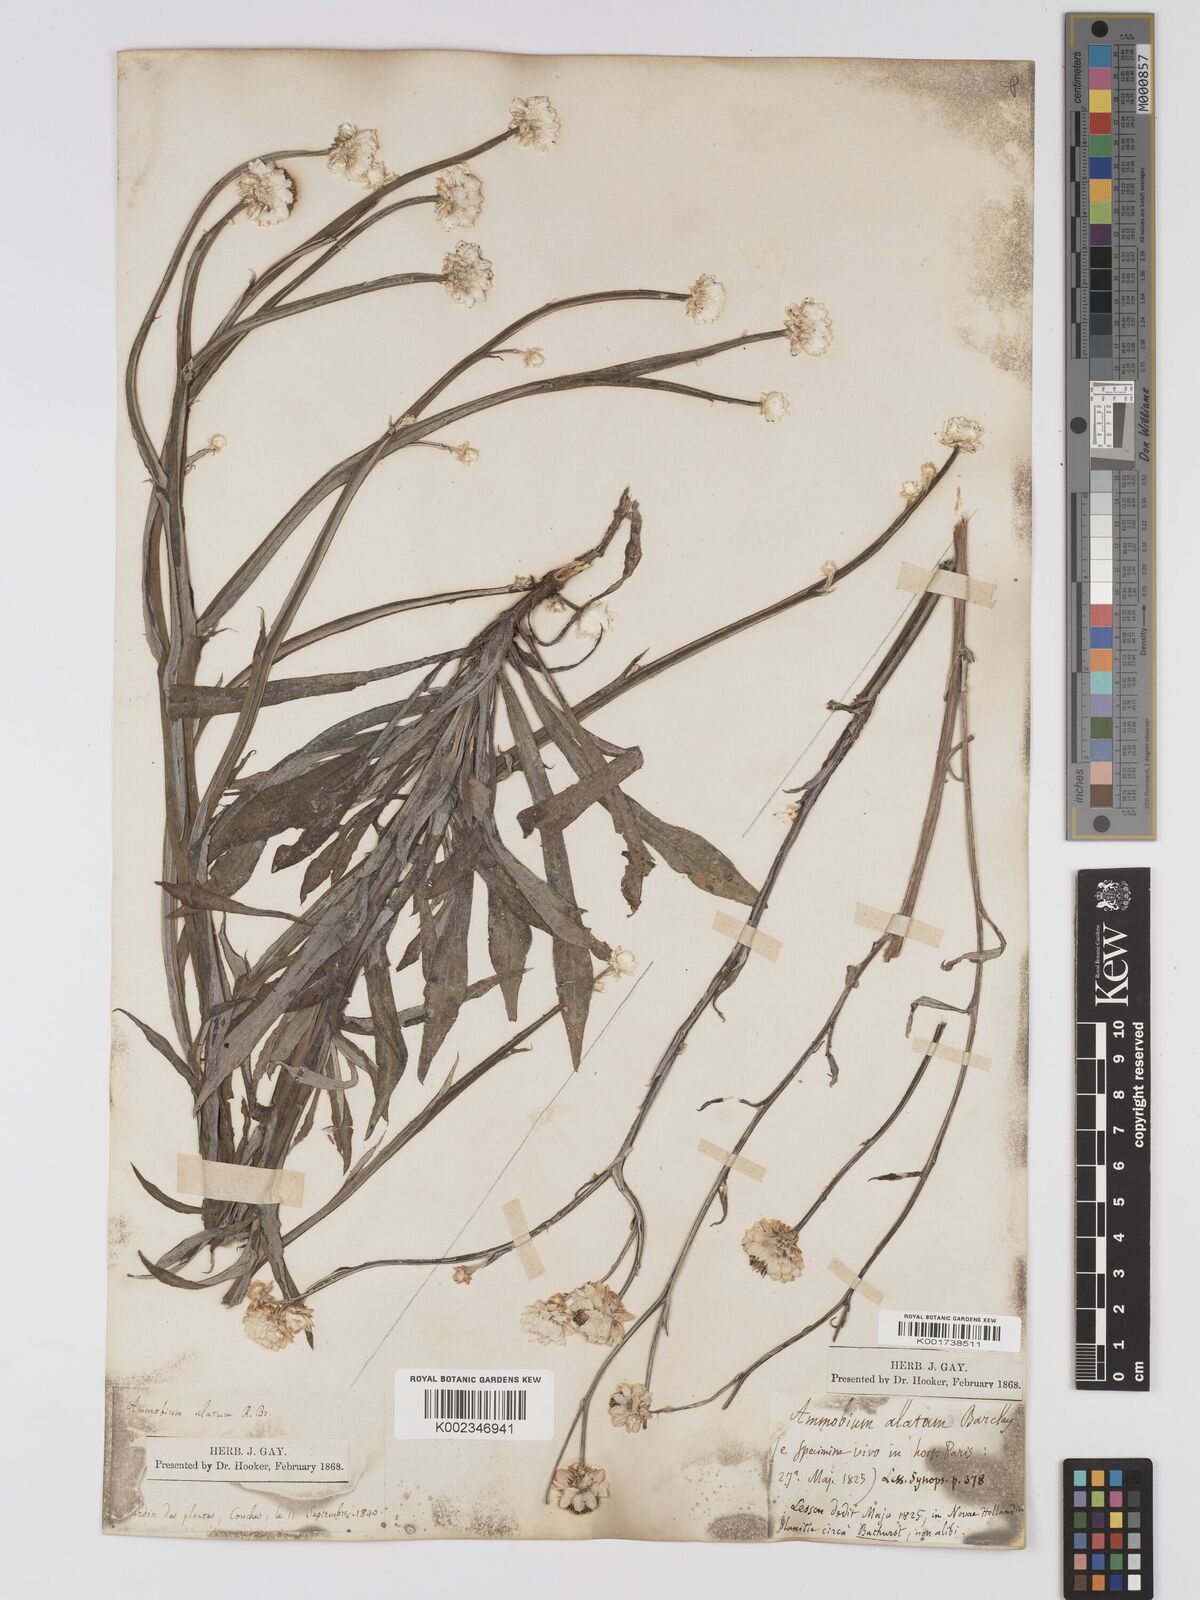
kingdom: Plantae
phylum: Tracheophyta
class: Magnoliopsida
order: Asterales
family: Asteraceae
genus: Ammobium
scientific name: Ammobium alatum
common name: Winged everlasting
